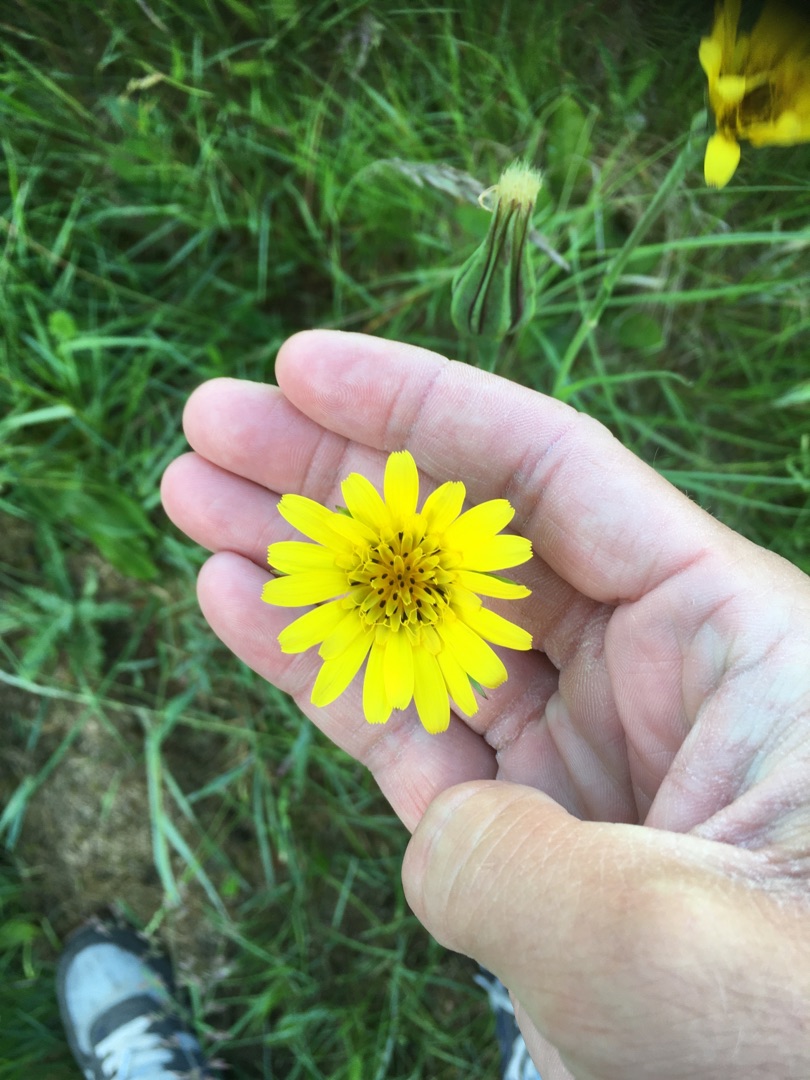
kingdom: Plantae
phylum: Tracheophyta
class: Magnoliopsida
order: Asterales
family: Asteraceae
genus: Tragopogon
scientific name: Tragopogon pratensis
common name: Gedeskæg
